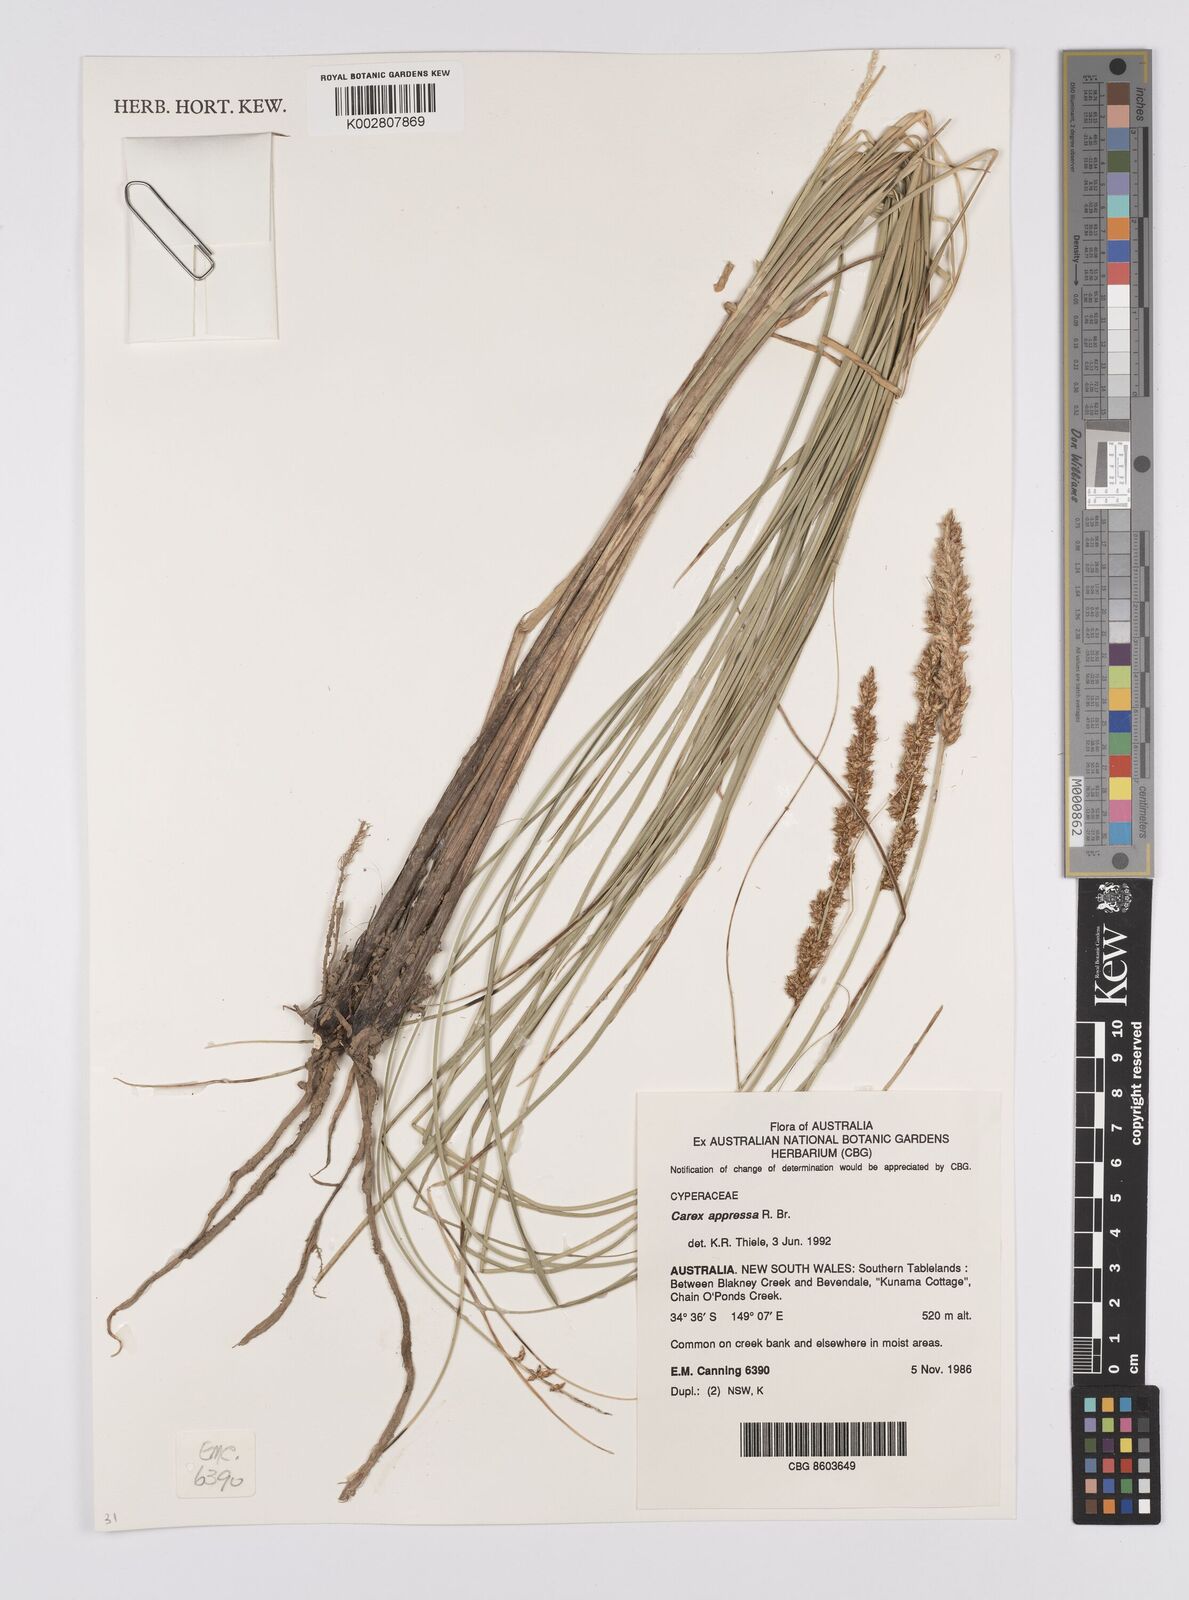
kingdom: Plantae
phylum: Tracheophyta
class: Liliopsida
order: Poales
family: Cyperaceae
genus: Carex
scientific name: Carex appressa
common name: Tussock sedge
